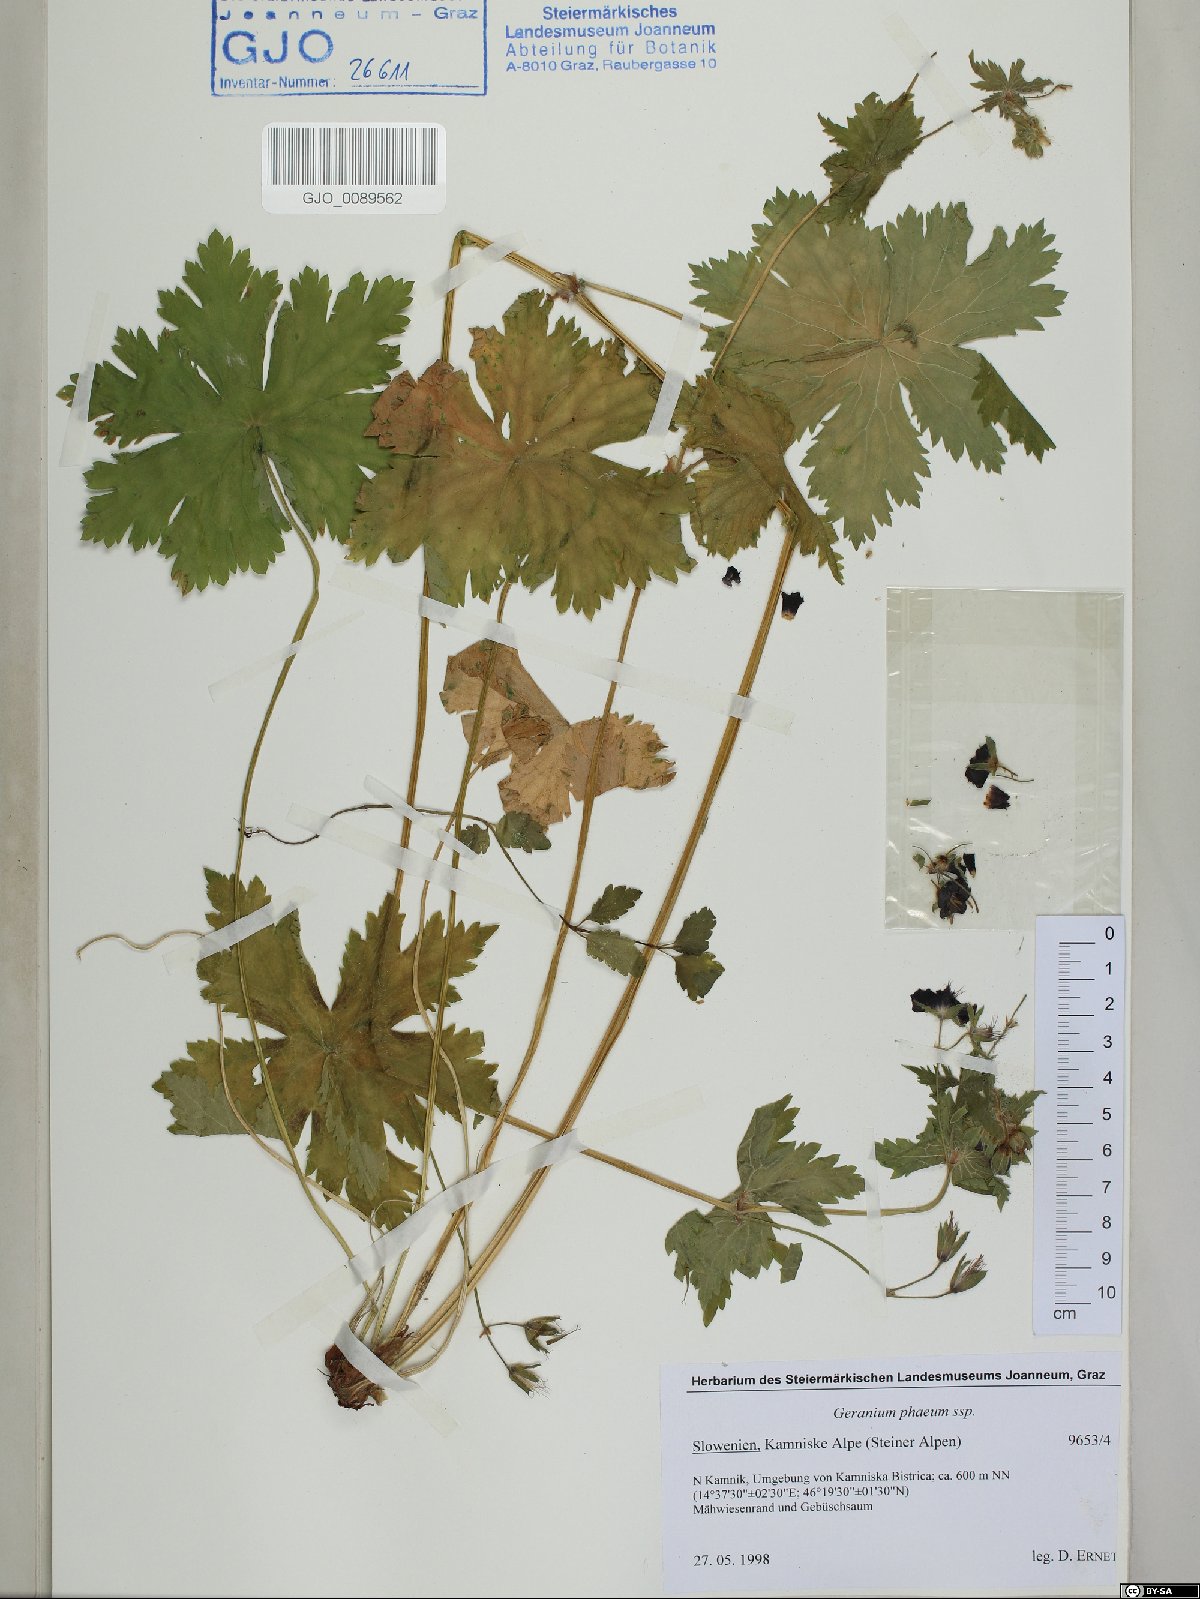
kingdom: Plantae
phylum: Tracheophyta
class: Magnoliopsida
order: Geraniales
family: Geraniaceae
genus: Geranium
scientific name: Geranium phaeum
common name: Dusky crane's-bill
